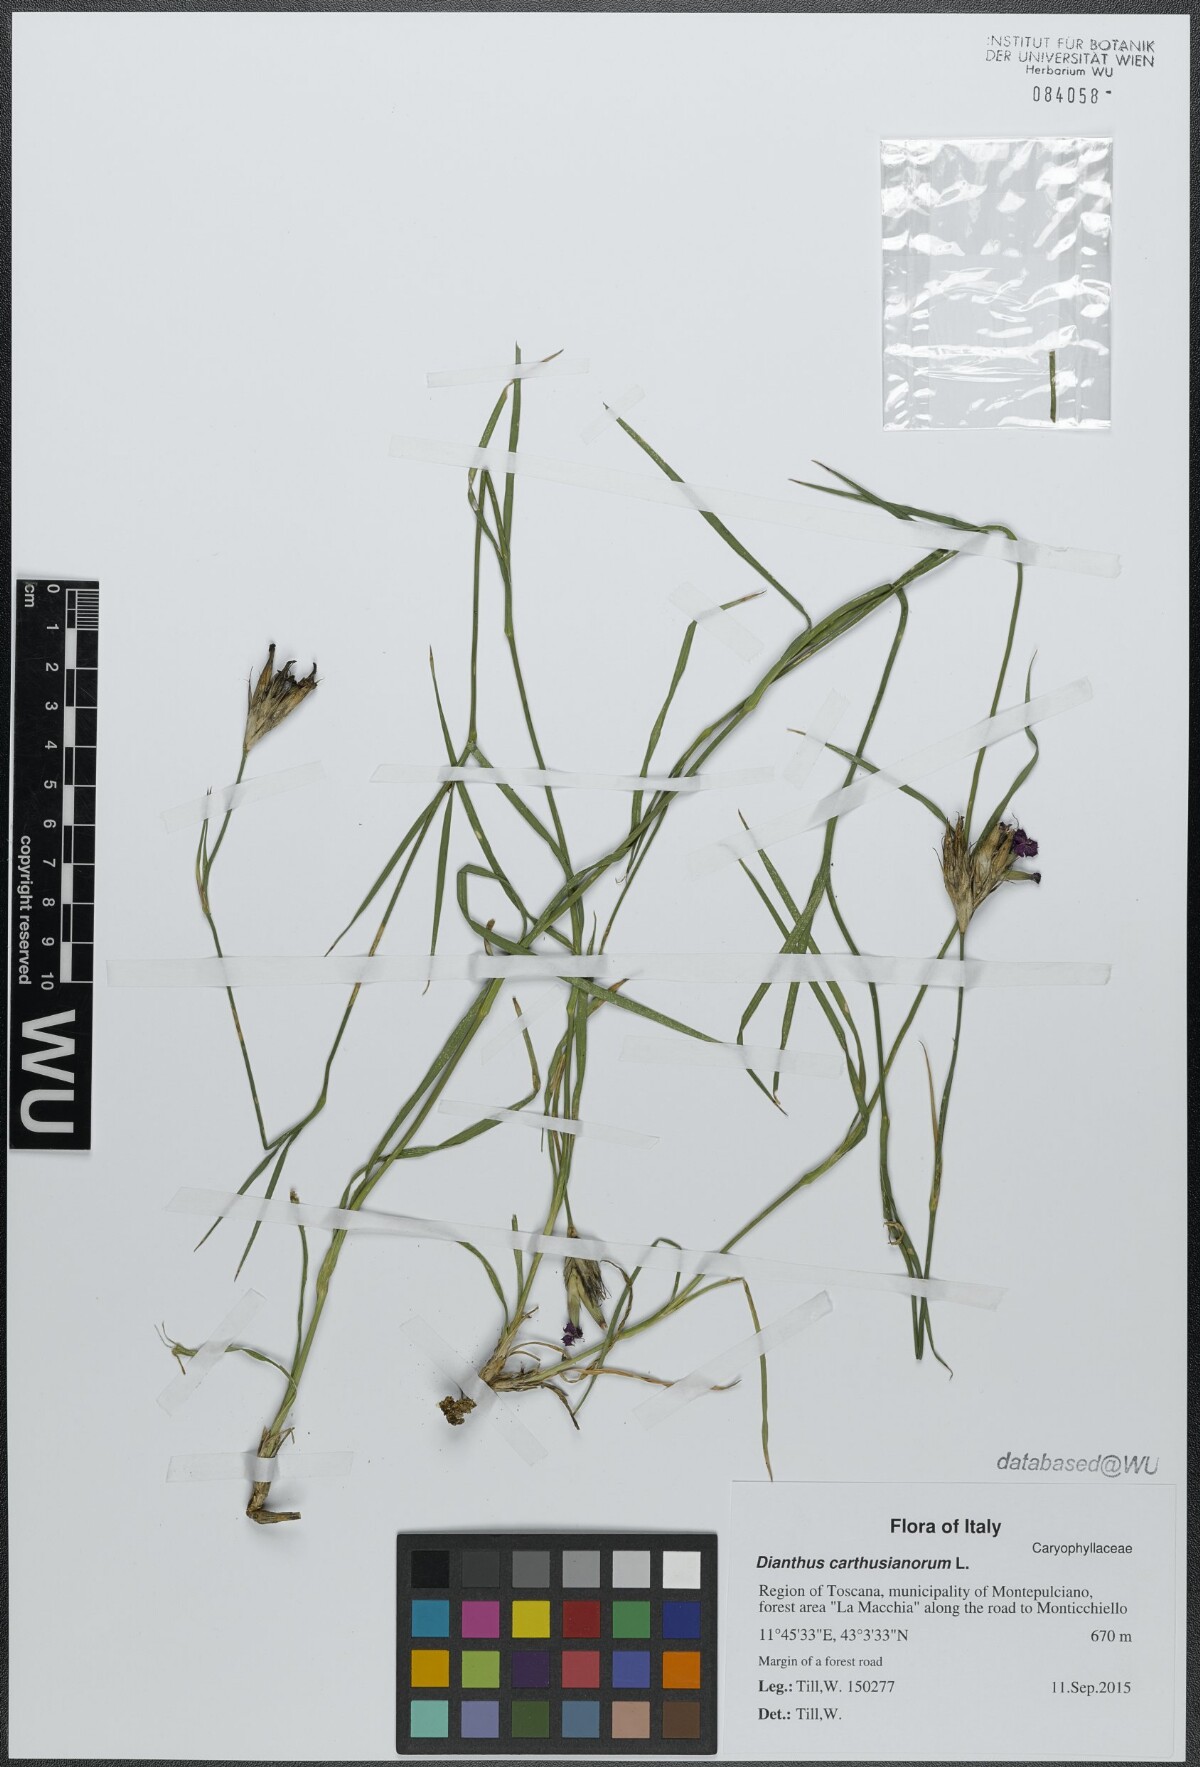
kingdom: Plantae
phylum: Tracheophyta
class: Magnoliopsida
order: Caryophyllales
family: Caryophyllaceae
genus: Dianthus
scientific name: Dianthus carthusianorum
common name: Carthusian pink
